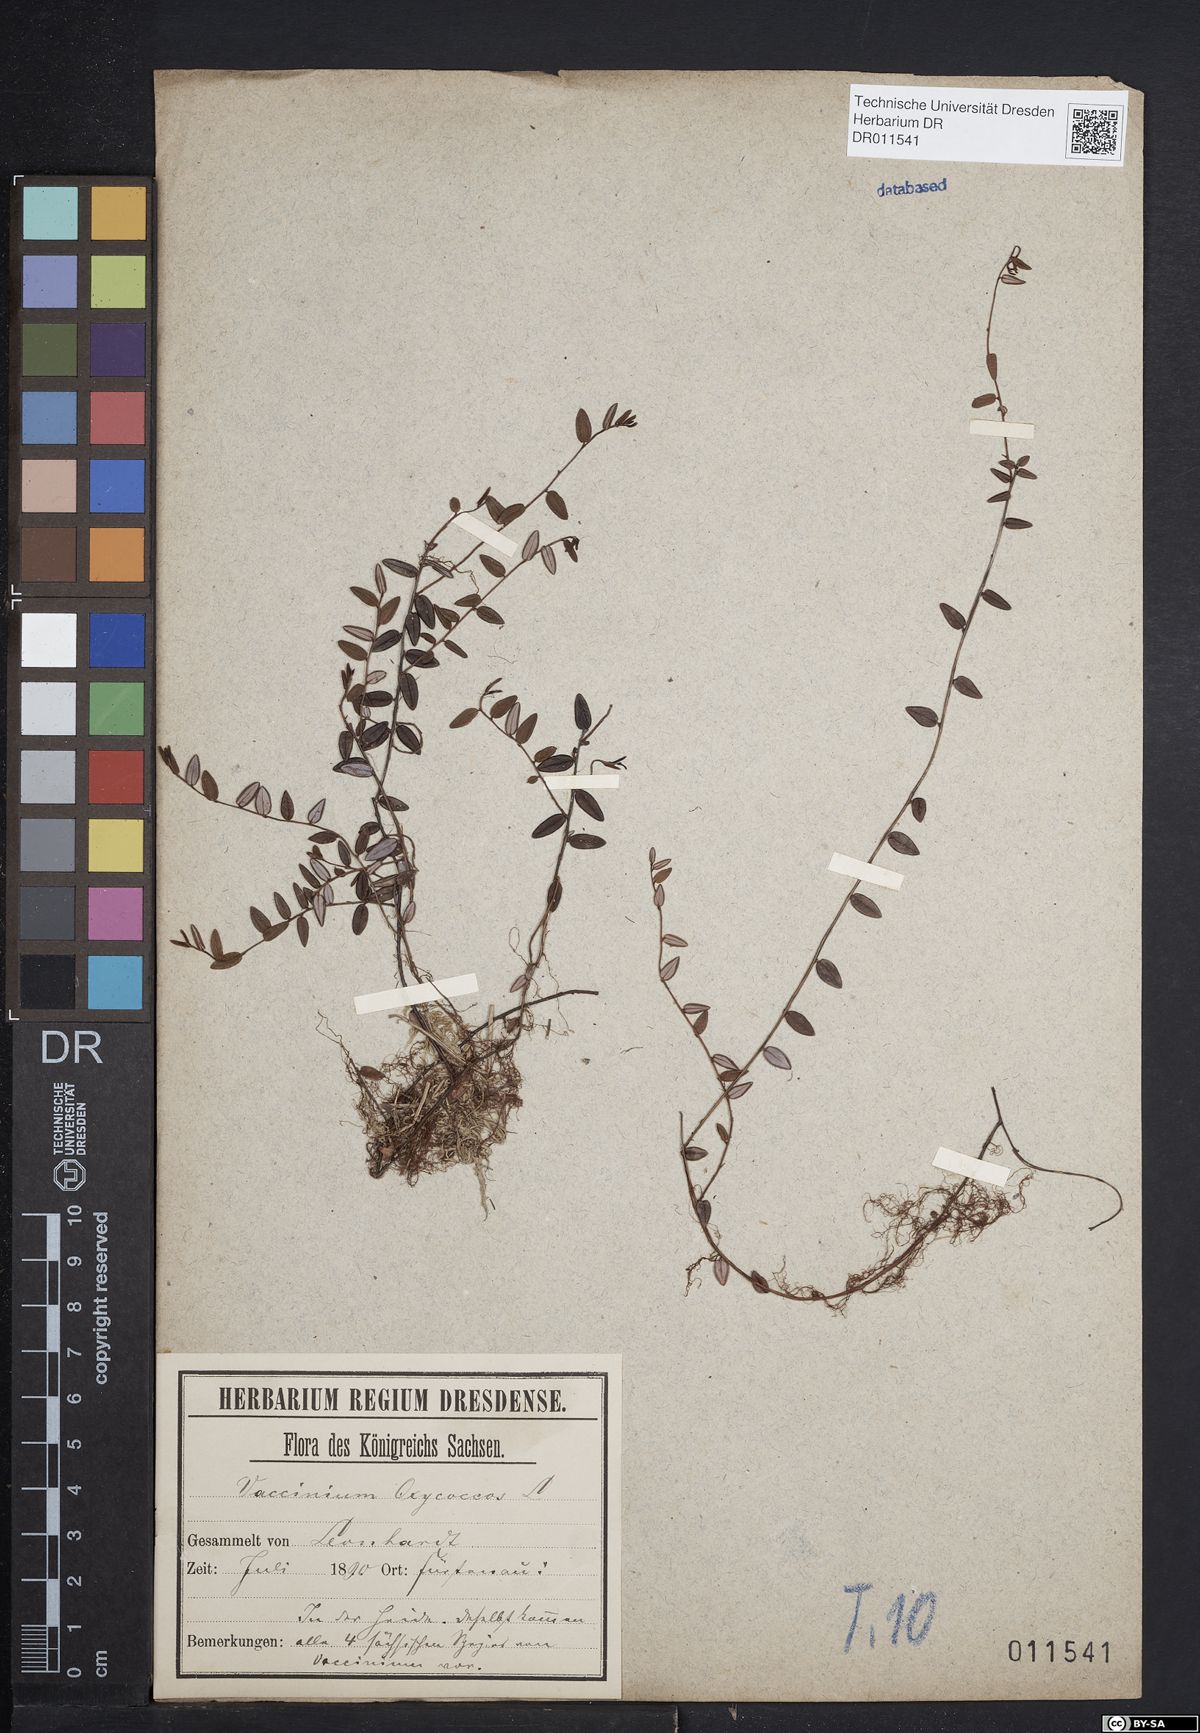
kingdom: Plantae
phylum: Tracheophyta
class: Magnoliopsida
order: Ericales
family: Ericaceae
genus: Vaccinium
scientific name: Vaccinium oxycoccos
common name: Cranberry
